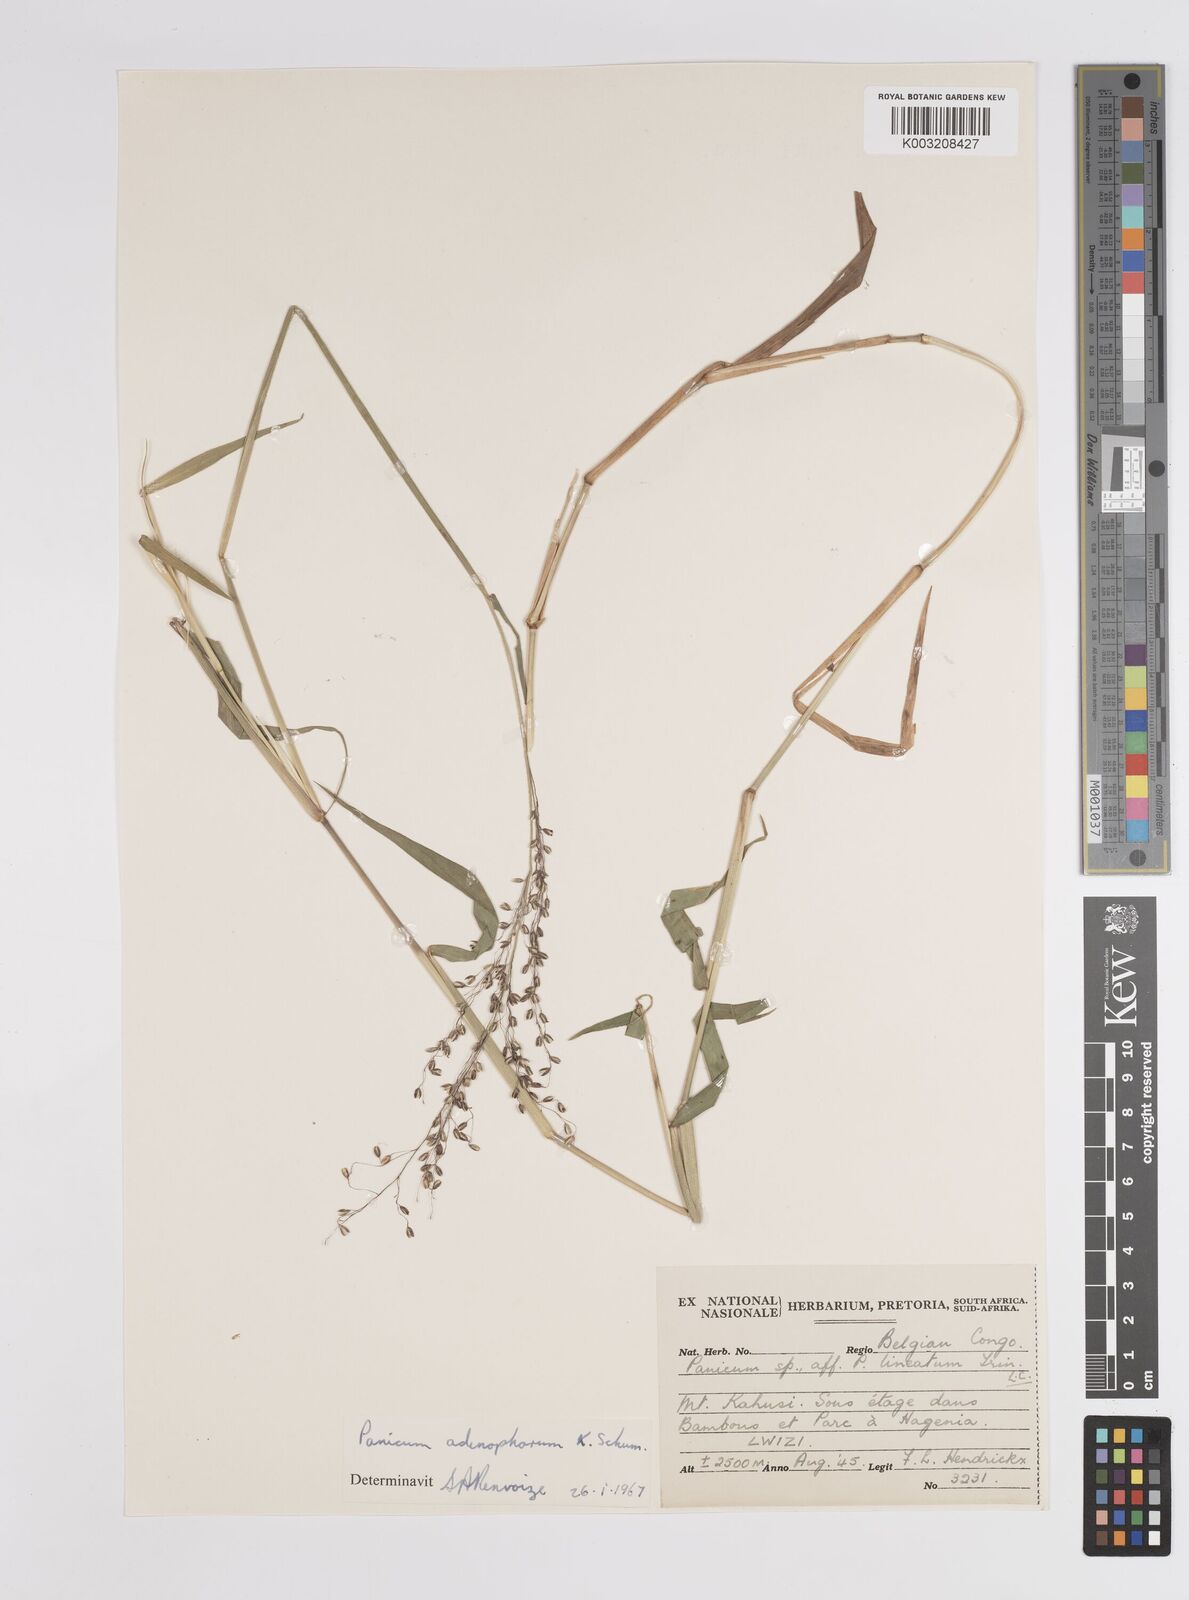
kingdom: Plantae
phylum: Tracheophyta
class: Liliopsida
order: Poales
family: Poaceae
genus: Adenochloa
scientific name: Adenochloa adenophora
